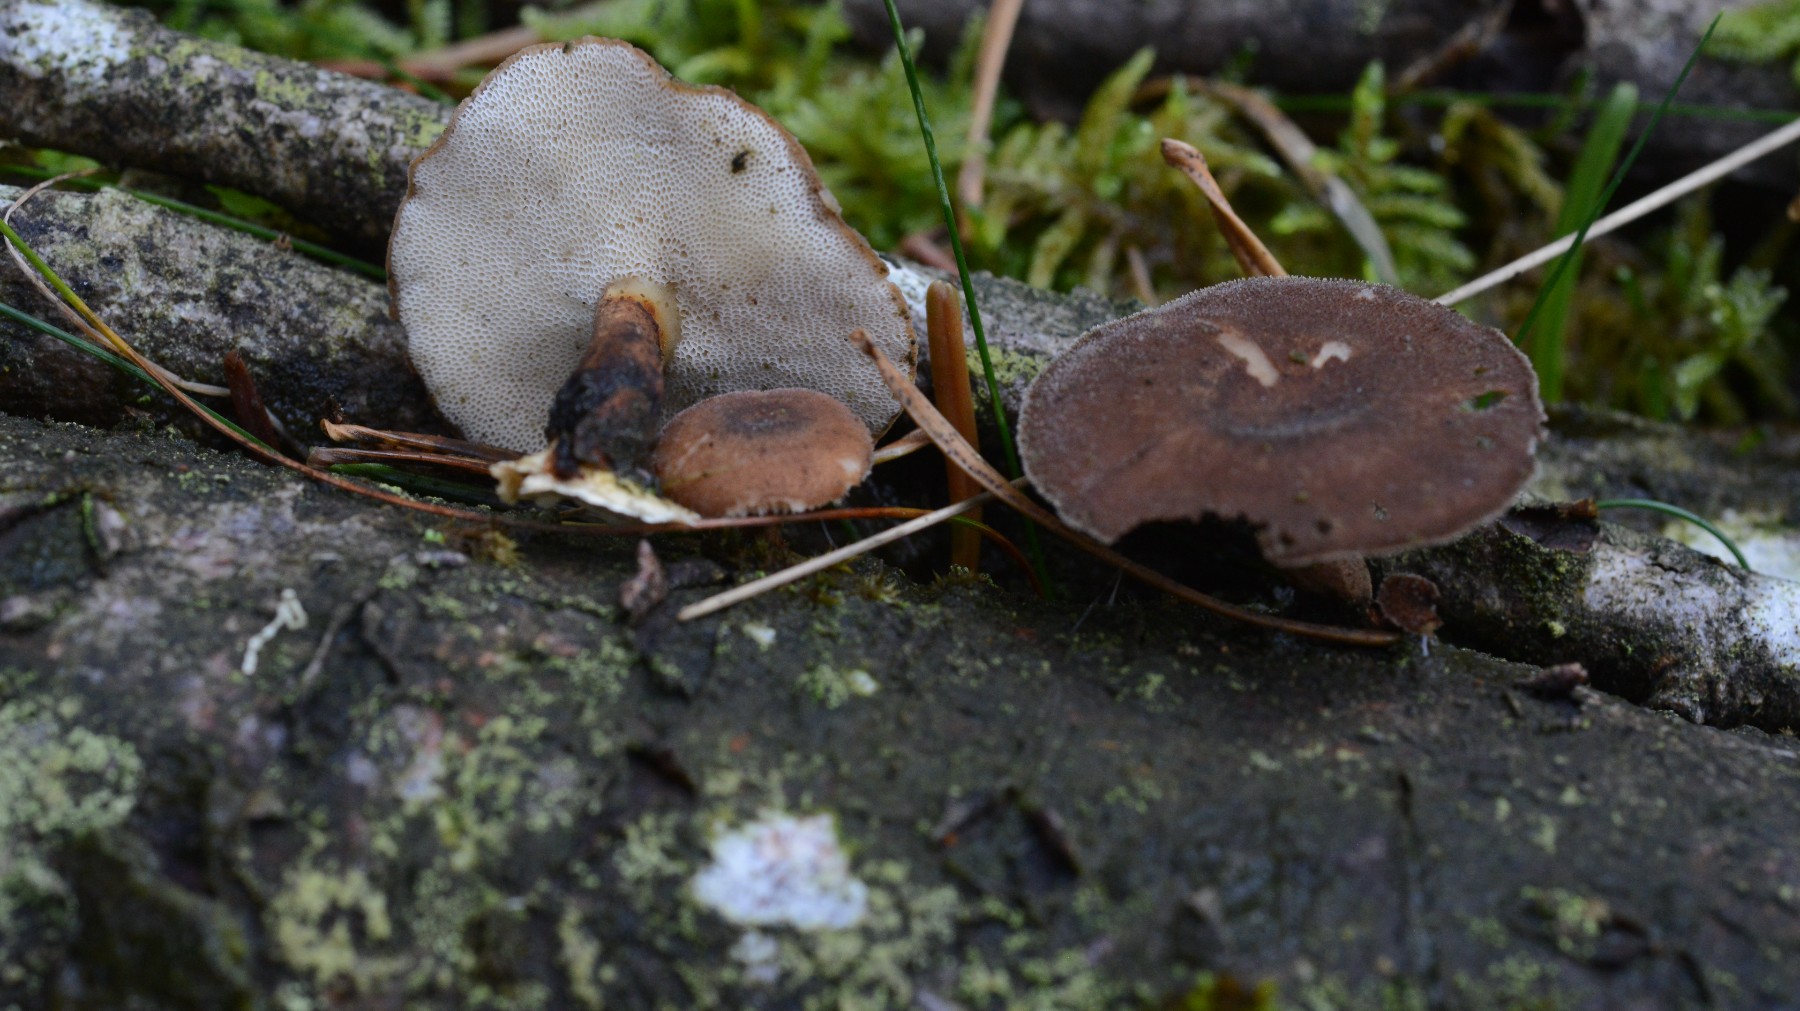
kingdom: Fungi
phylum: Basidiomycota
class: Agaricomycetes
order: Polyporales
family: Polyporaceae
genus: Lentinus
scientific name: Lentinus brumalis
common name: vinter-stilkporesvamp
